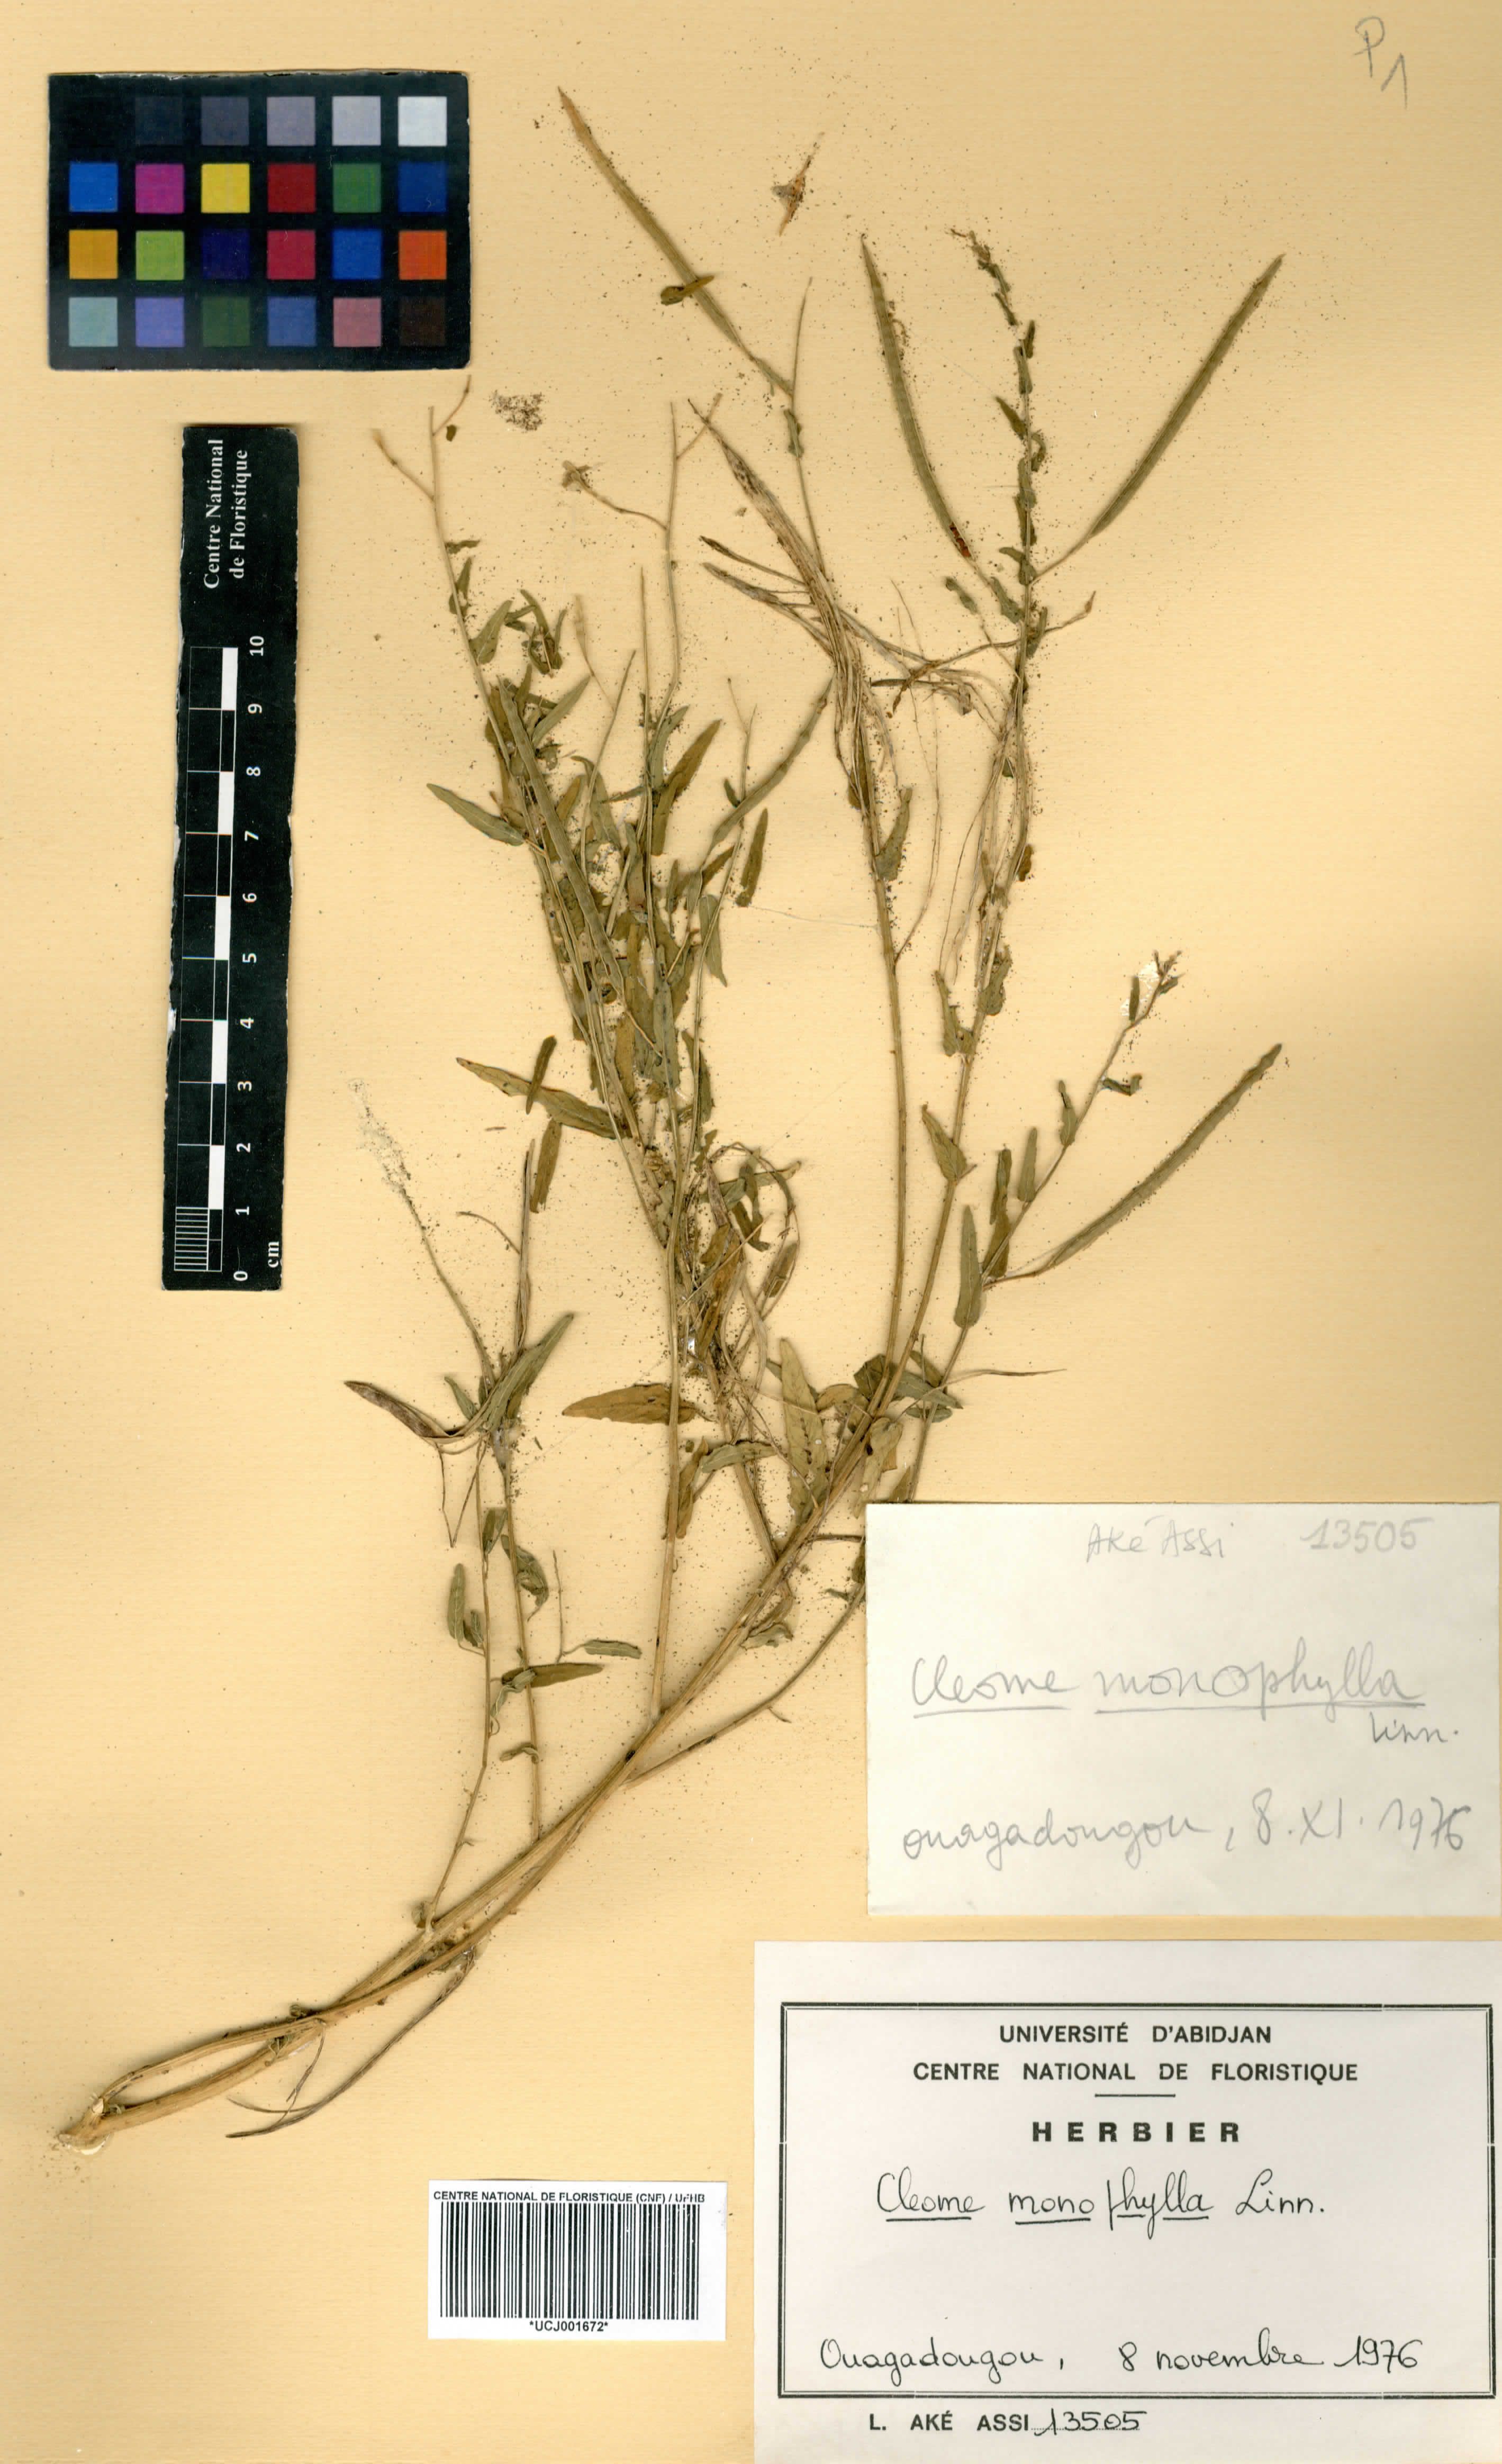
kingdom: Plantae
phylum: Tracheophyta
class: Magnoliopsida
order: Brassicales
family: Cleomaceae
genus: Sieruela
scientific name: Sieruela monophylla
